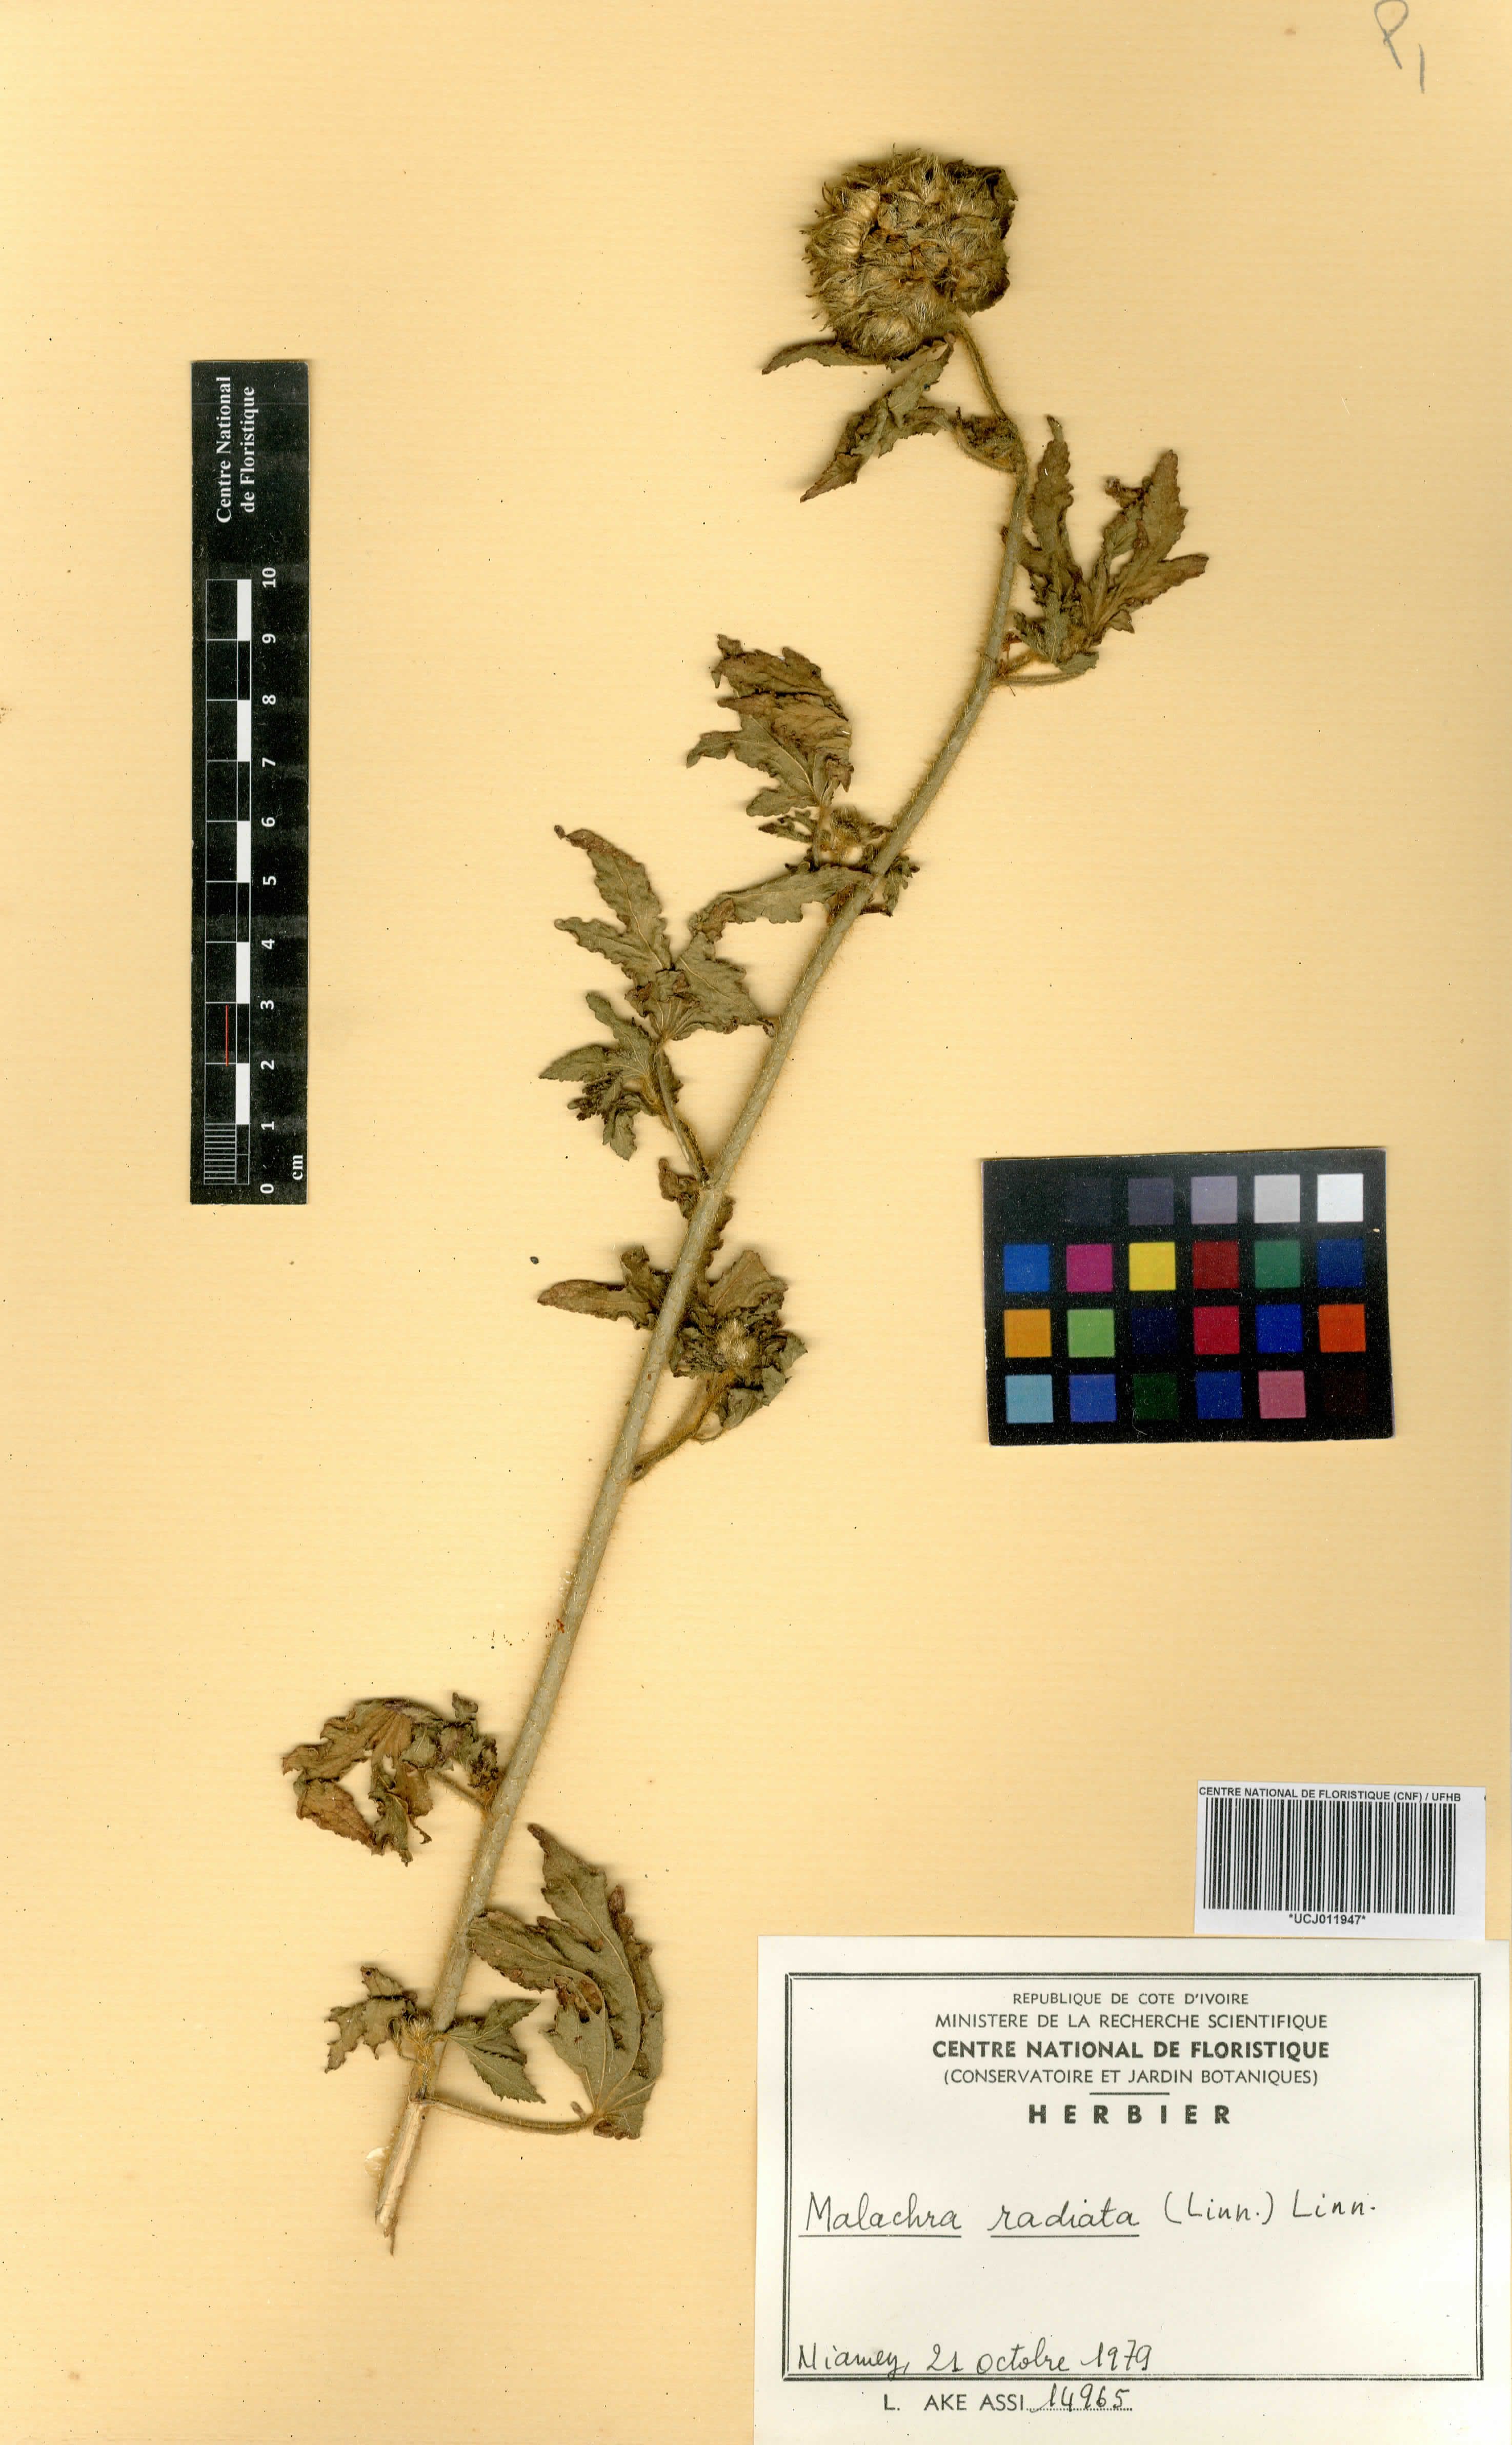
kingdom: Plantae
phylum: Tracheophyta
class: Magnoliopsida
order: Malvales
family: Malvaceae
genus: Malachra
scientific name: Malachra radiata
